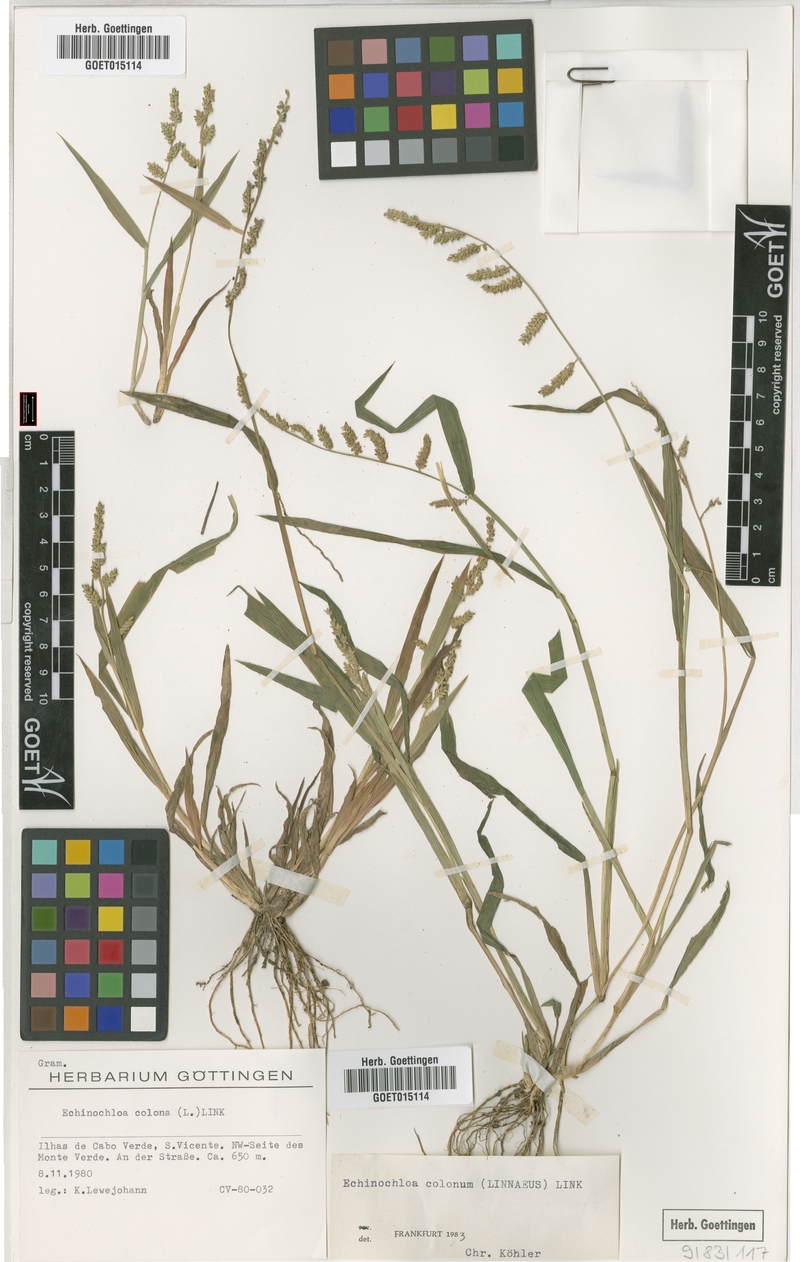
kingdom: Plantae
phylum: Tracheophyta
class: Liliopsida
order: Poales
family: Poaceae
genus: Echinochloa
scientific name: Echinochloa colonum
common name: Jungle rice
